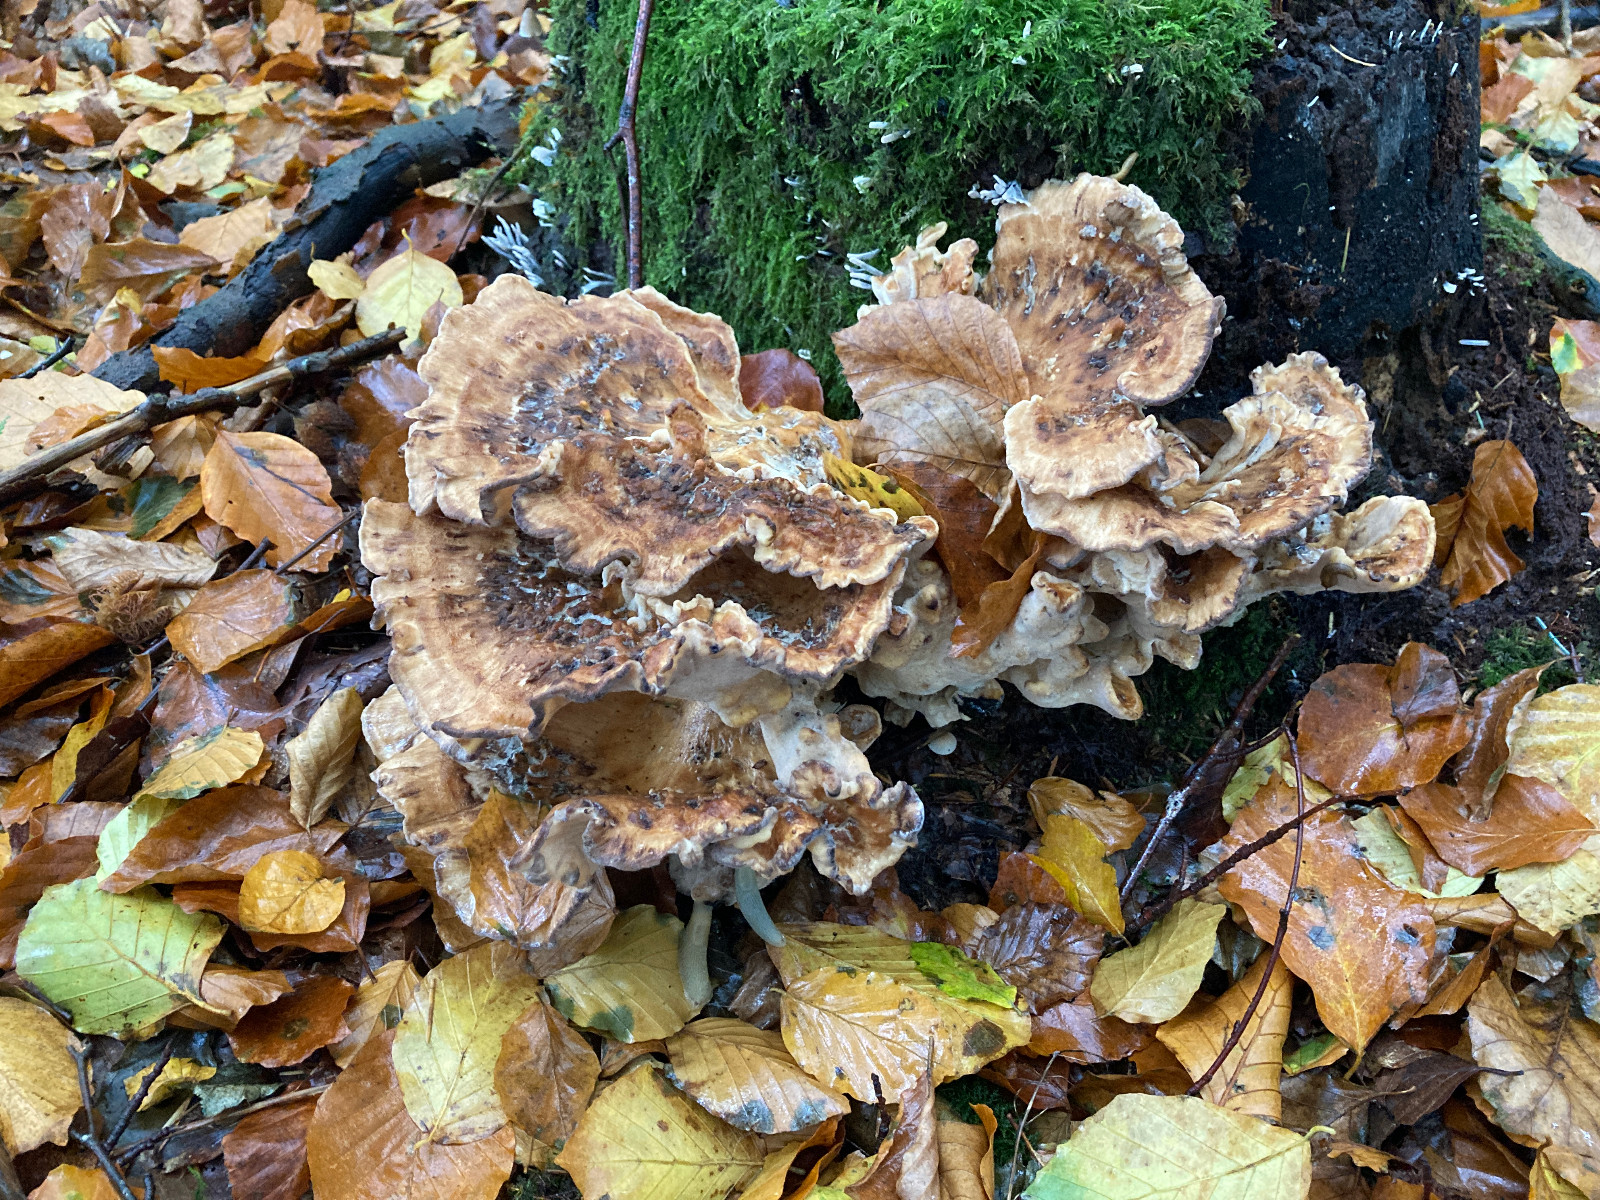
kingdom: Fungi
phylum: Basidiomycota
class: Agaricomycetes
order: Polyporales
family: Meripilaceae
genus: Meripilus
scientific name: Meripilus giganteus
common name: kæmpeporesvamp
